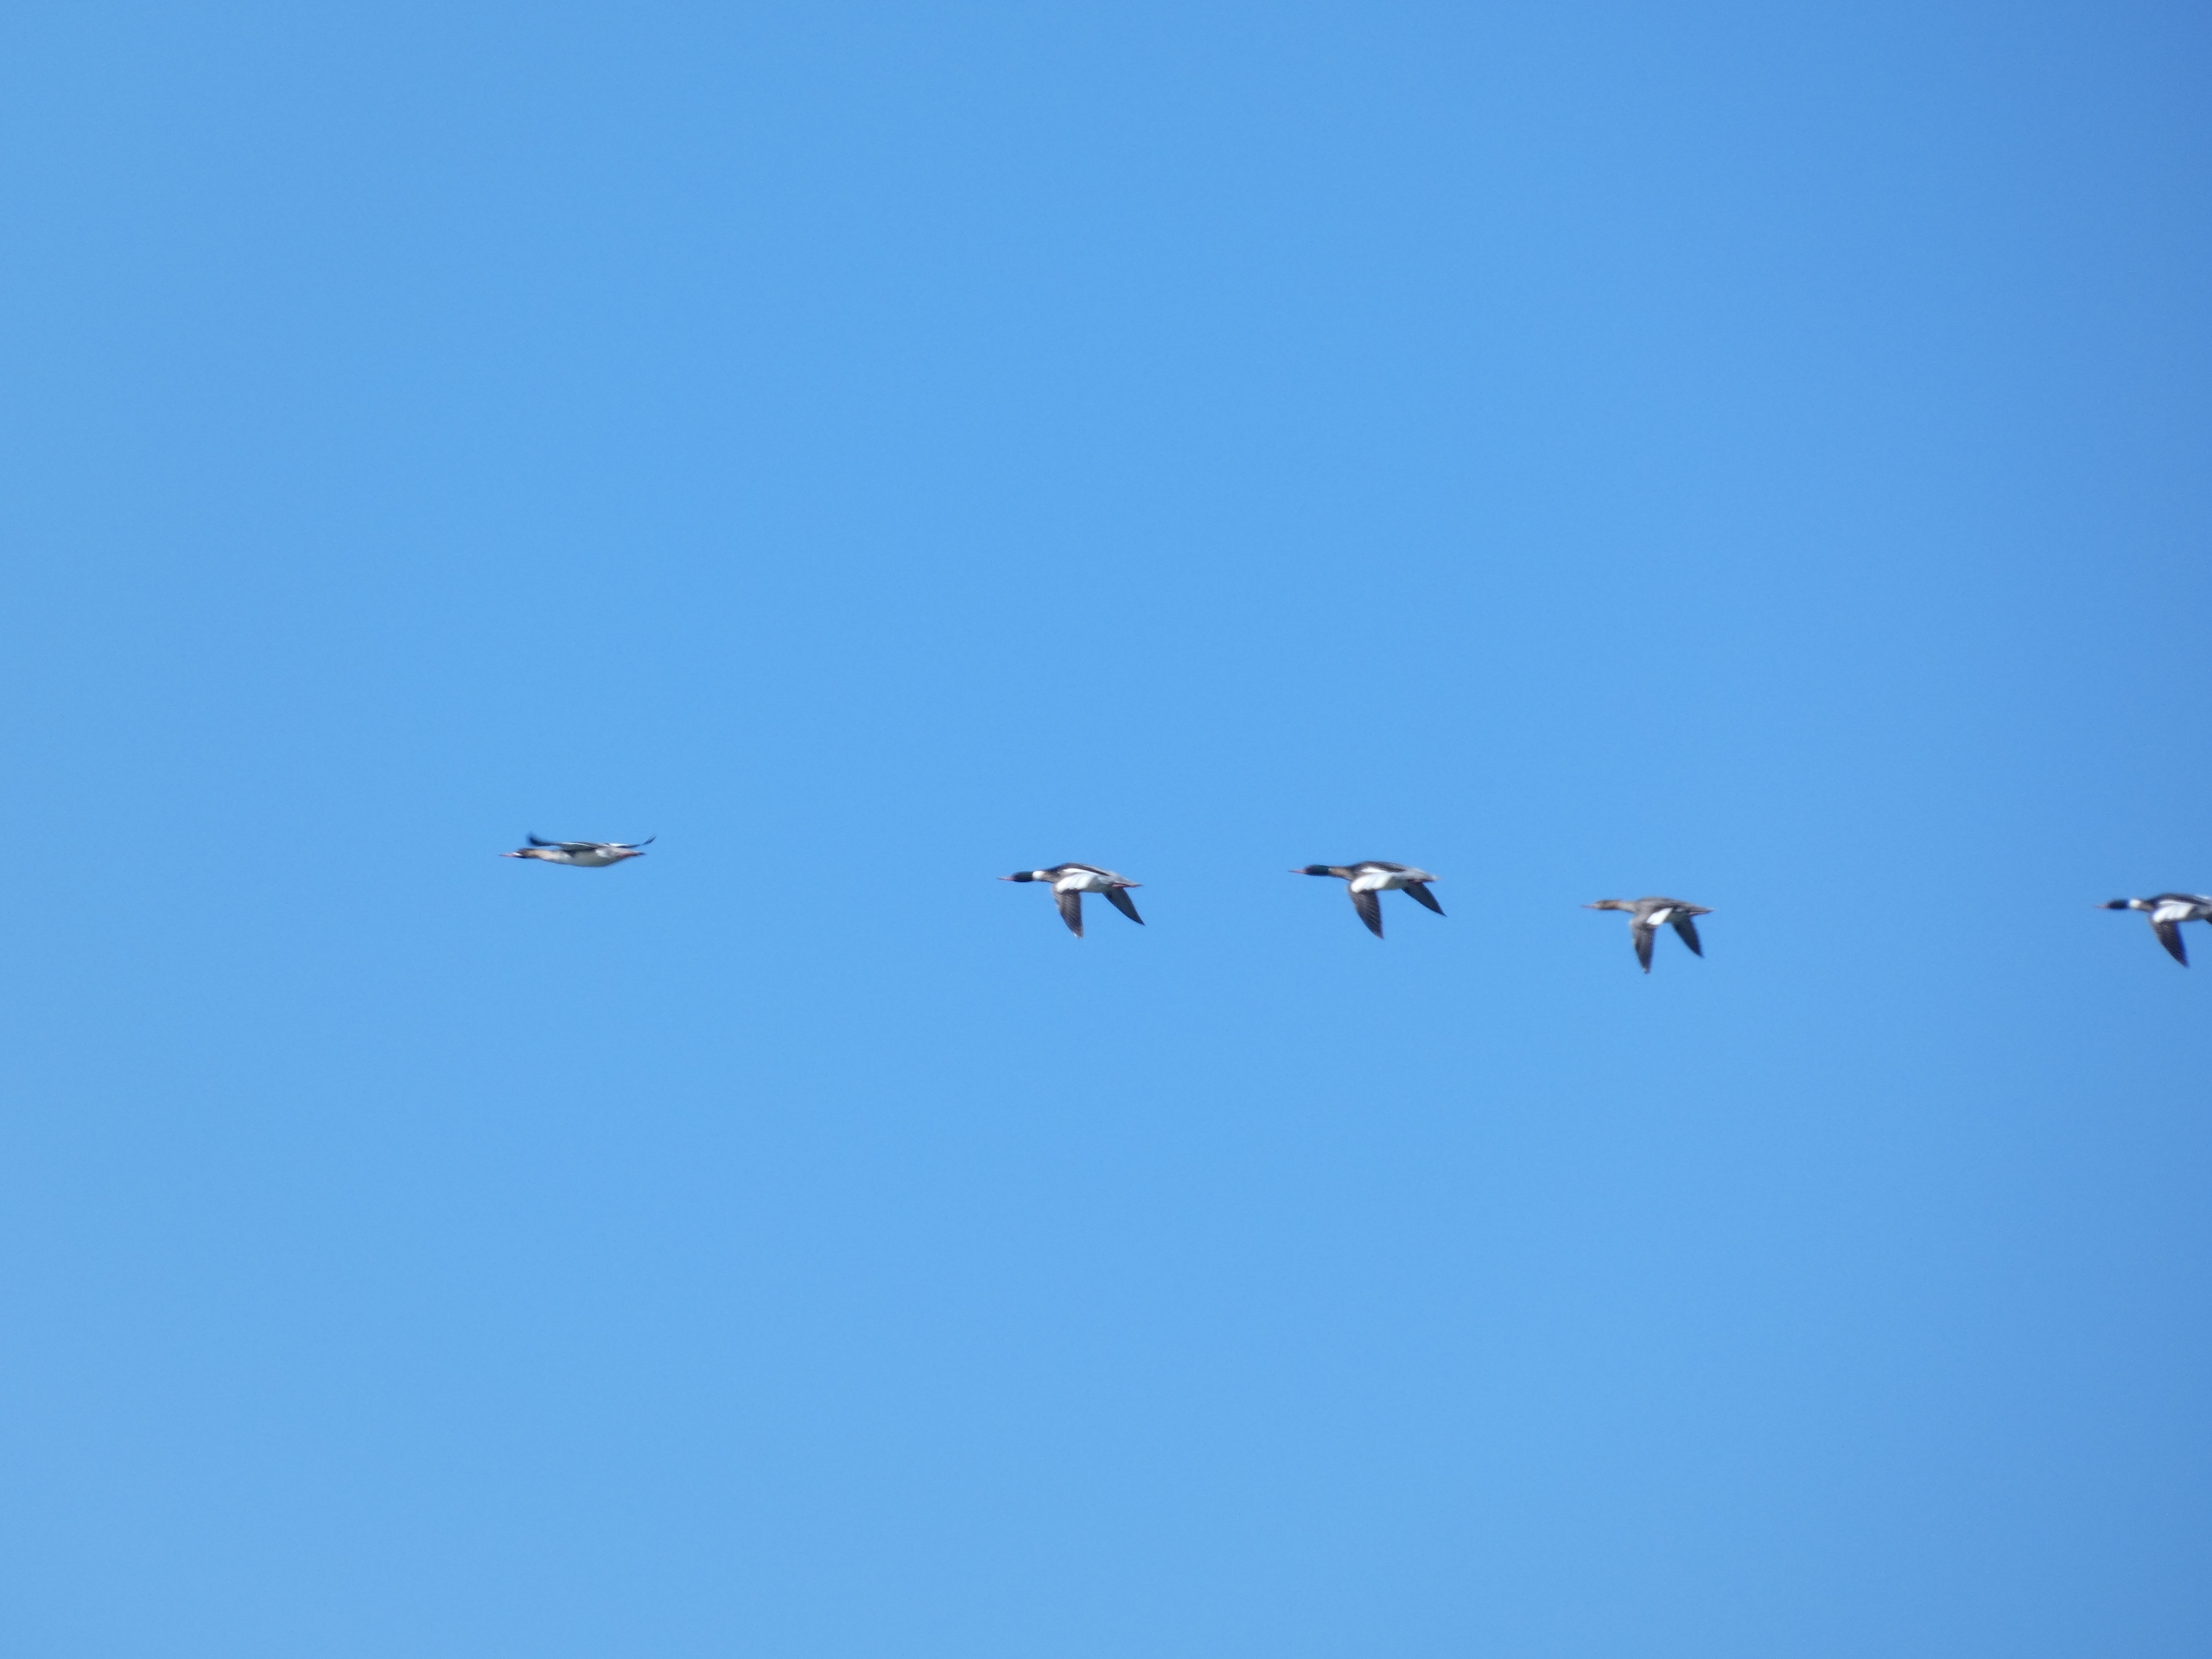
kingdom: Animalia
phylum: Chordata
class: Aves
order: Anseriformes
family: Anatidae
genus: Mergus
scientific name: Mergus serrator
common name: Toppet skallesluger
